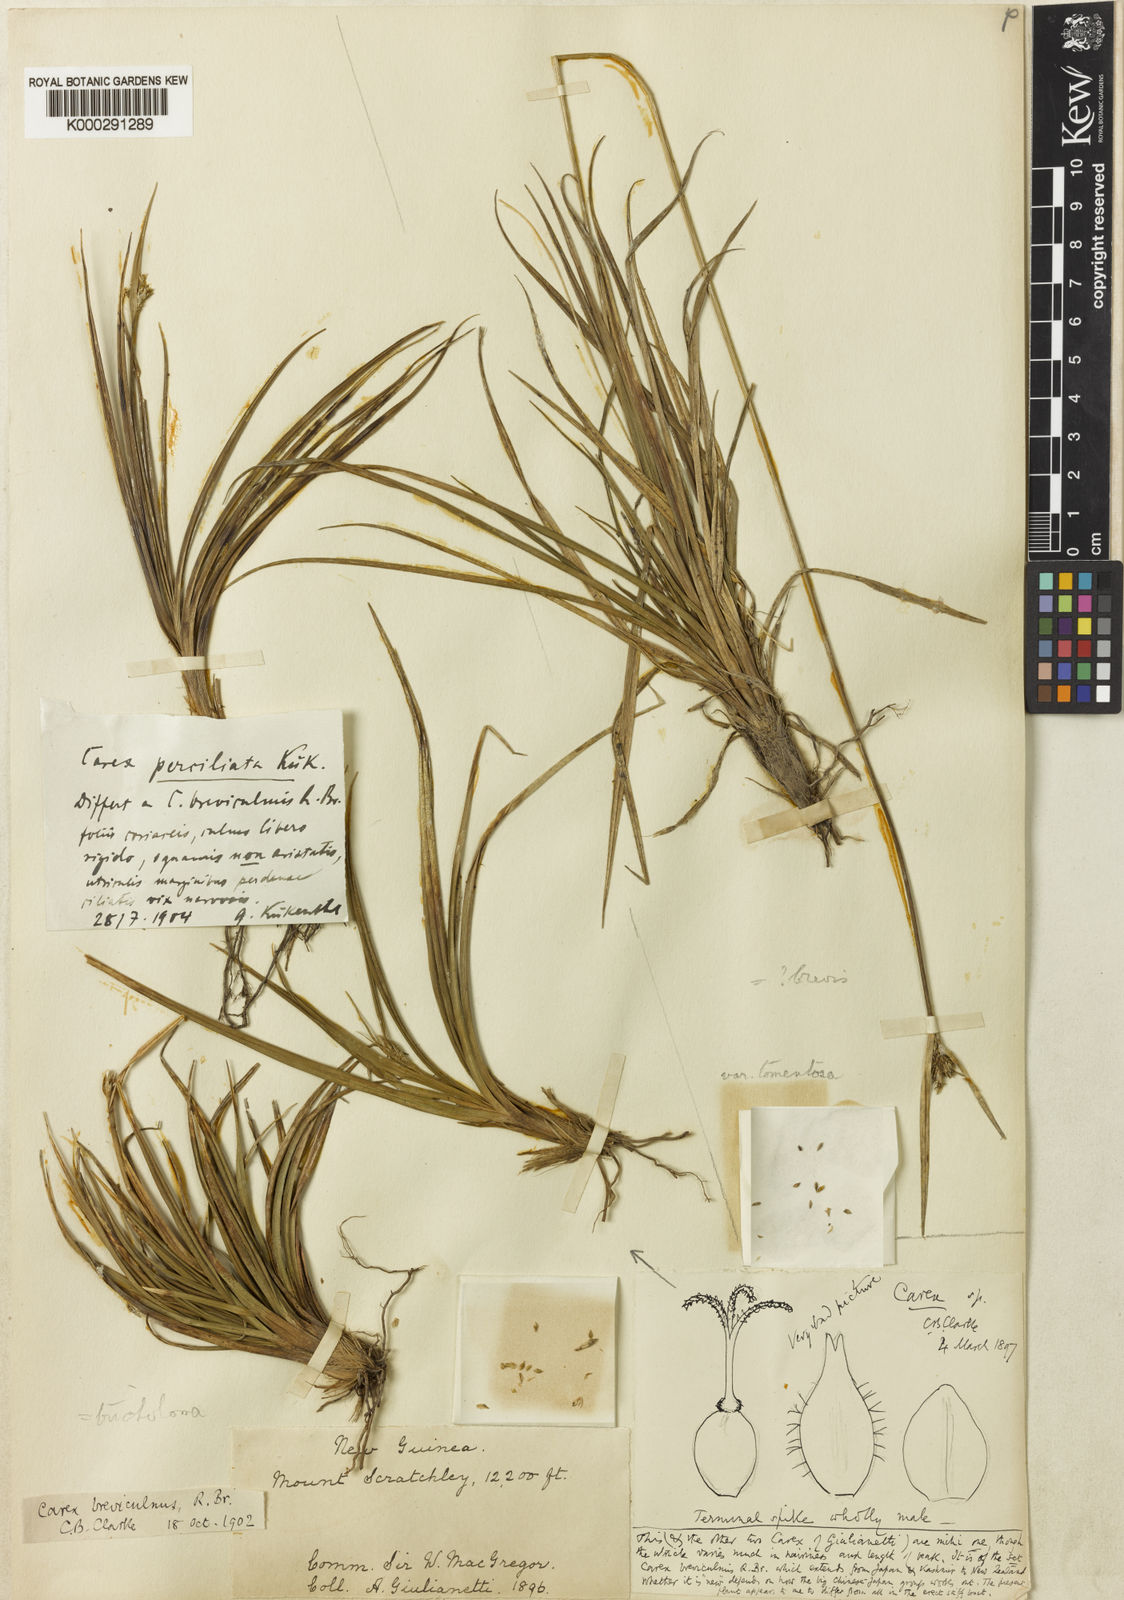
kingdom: Plantae
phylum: Tracheophyta
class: Liliopsida
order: Poales
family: Cyperaceae
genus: Carex
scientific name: Carex
